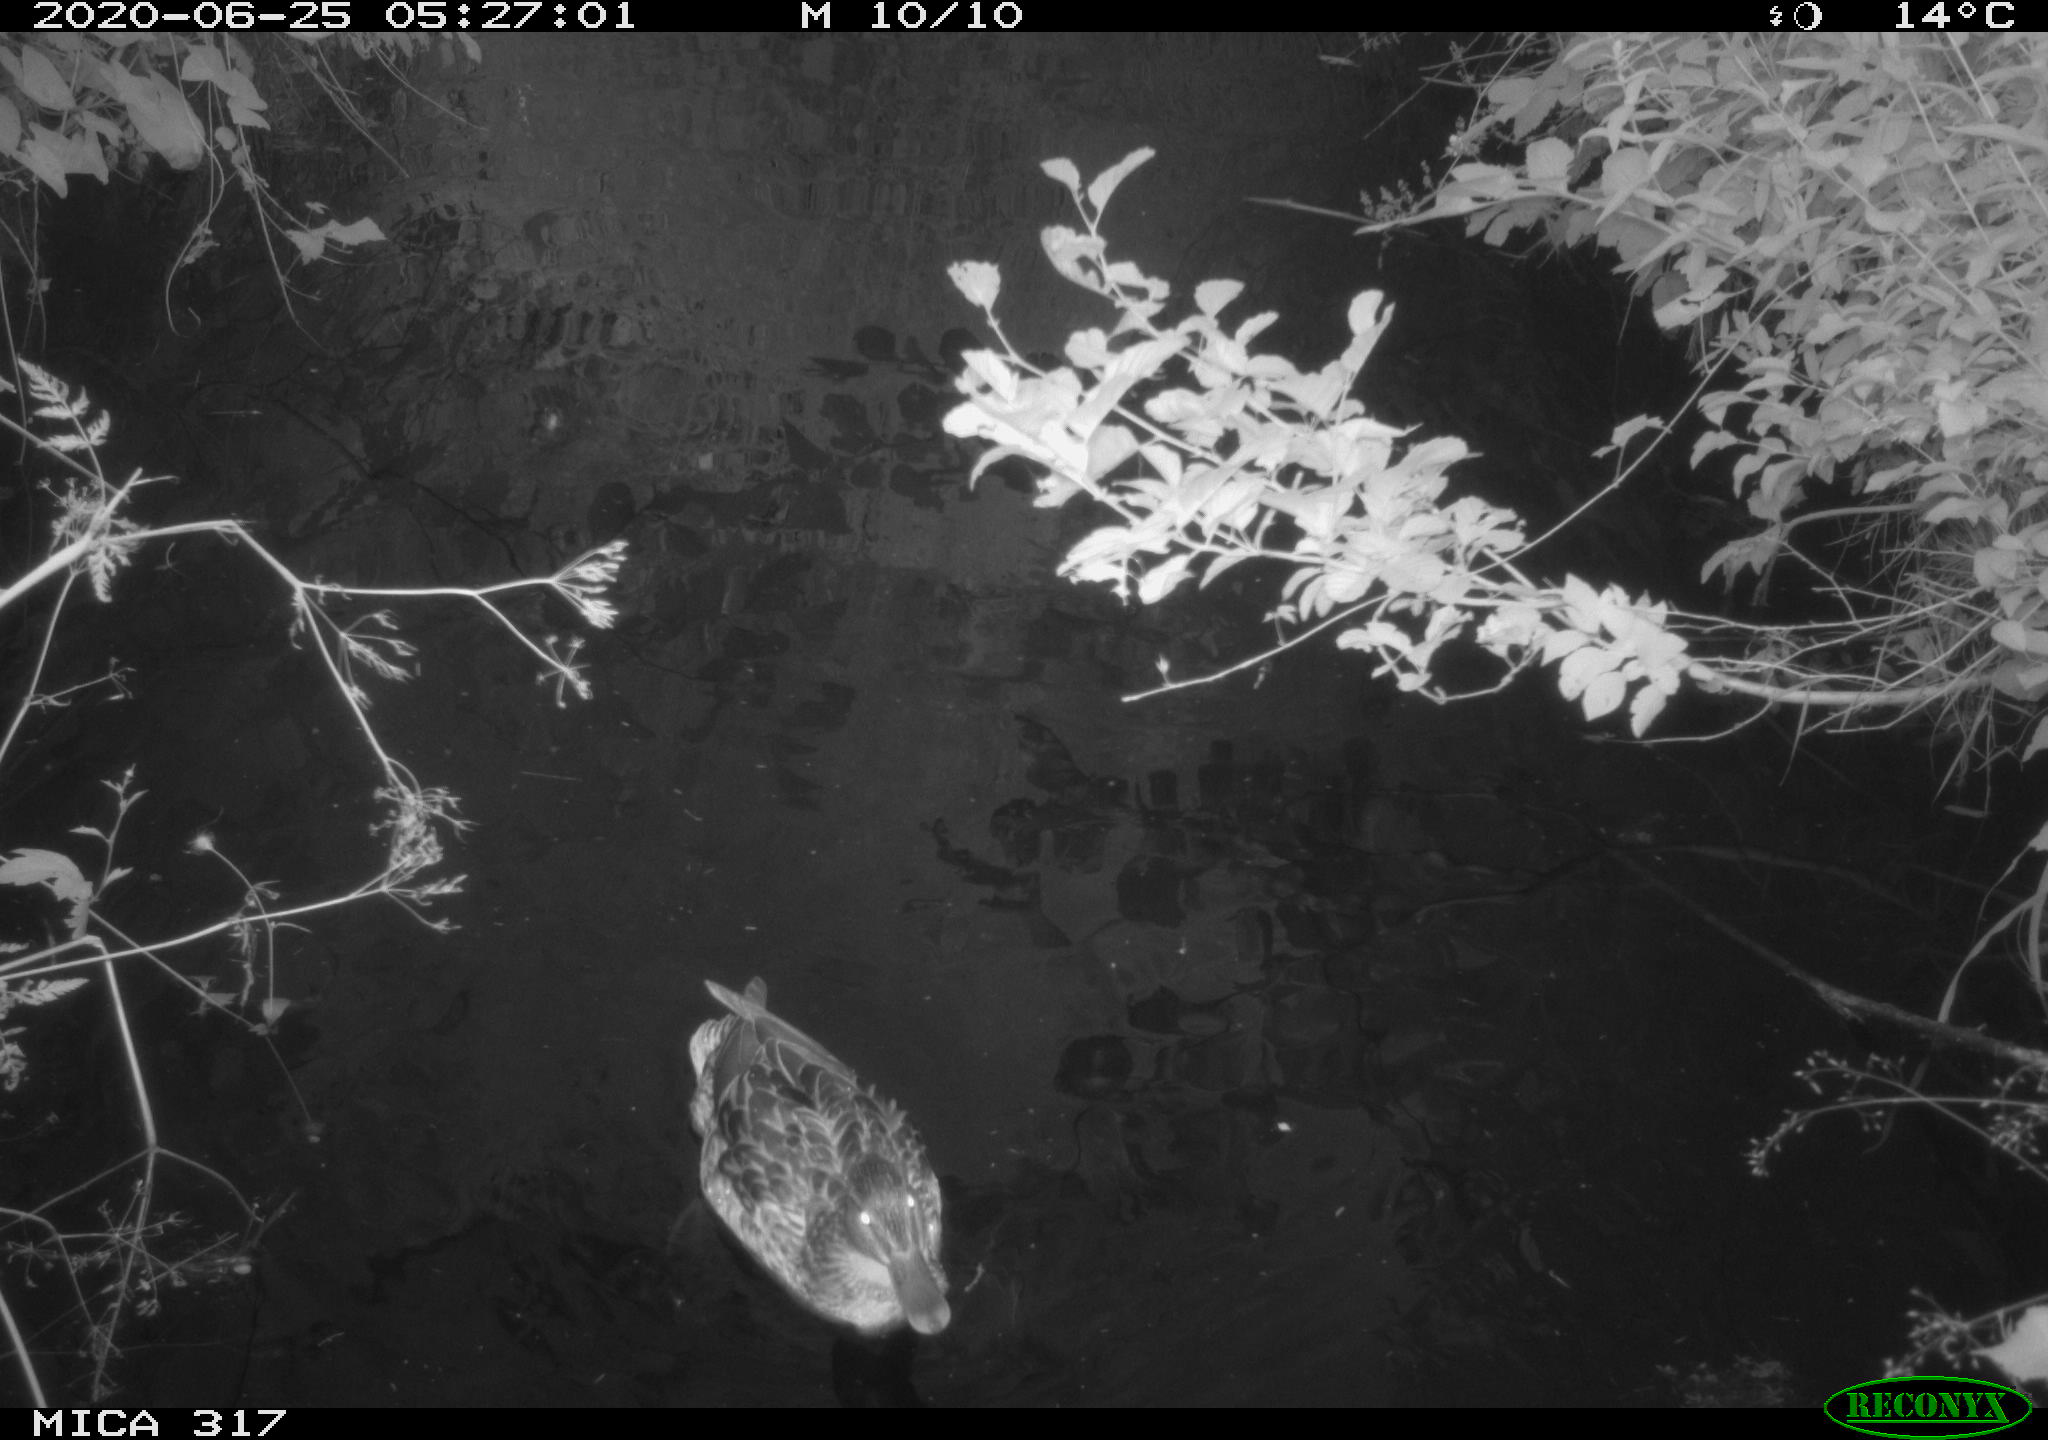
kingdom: Animalia
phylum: Chordata
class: Aves
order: Anseriformes
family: Anatidae
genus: Anas
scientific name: Anas platyrhynchos
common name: Mallard
